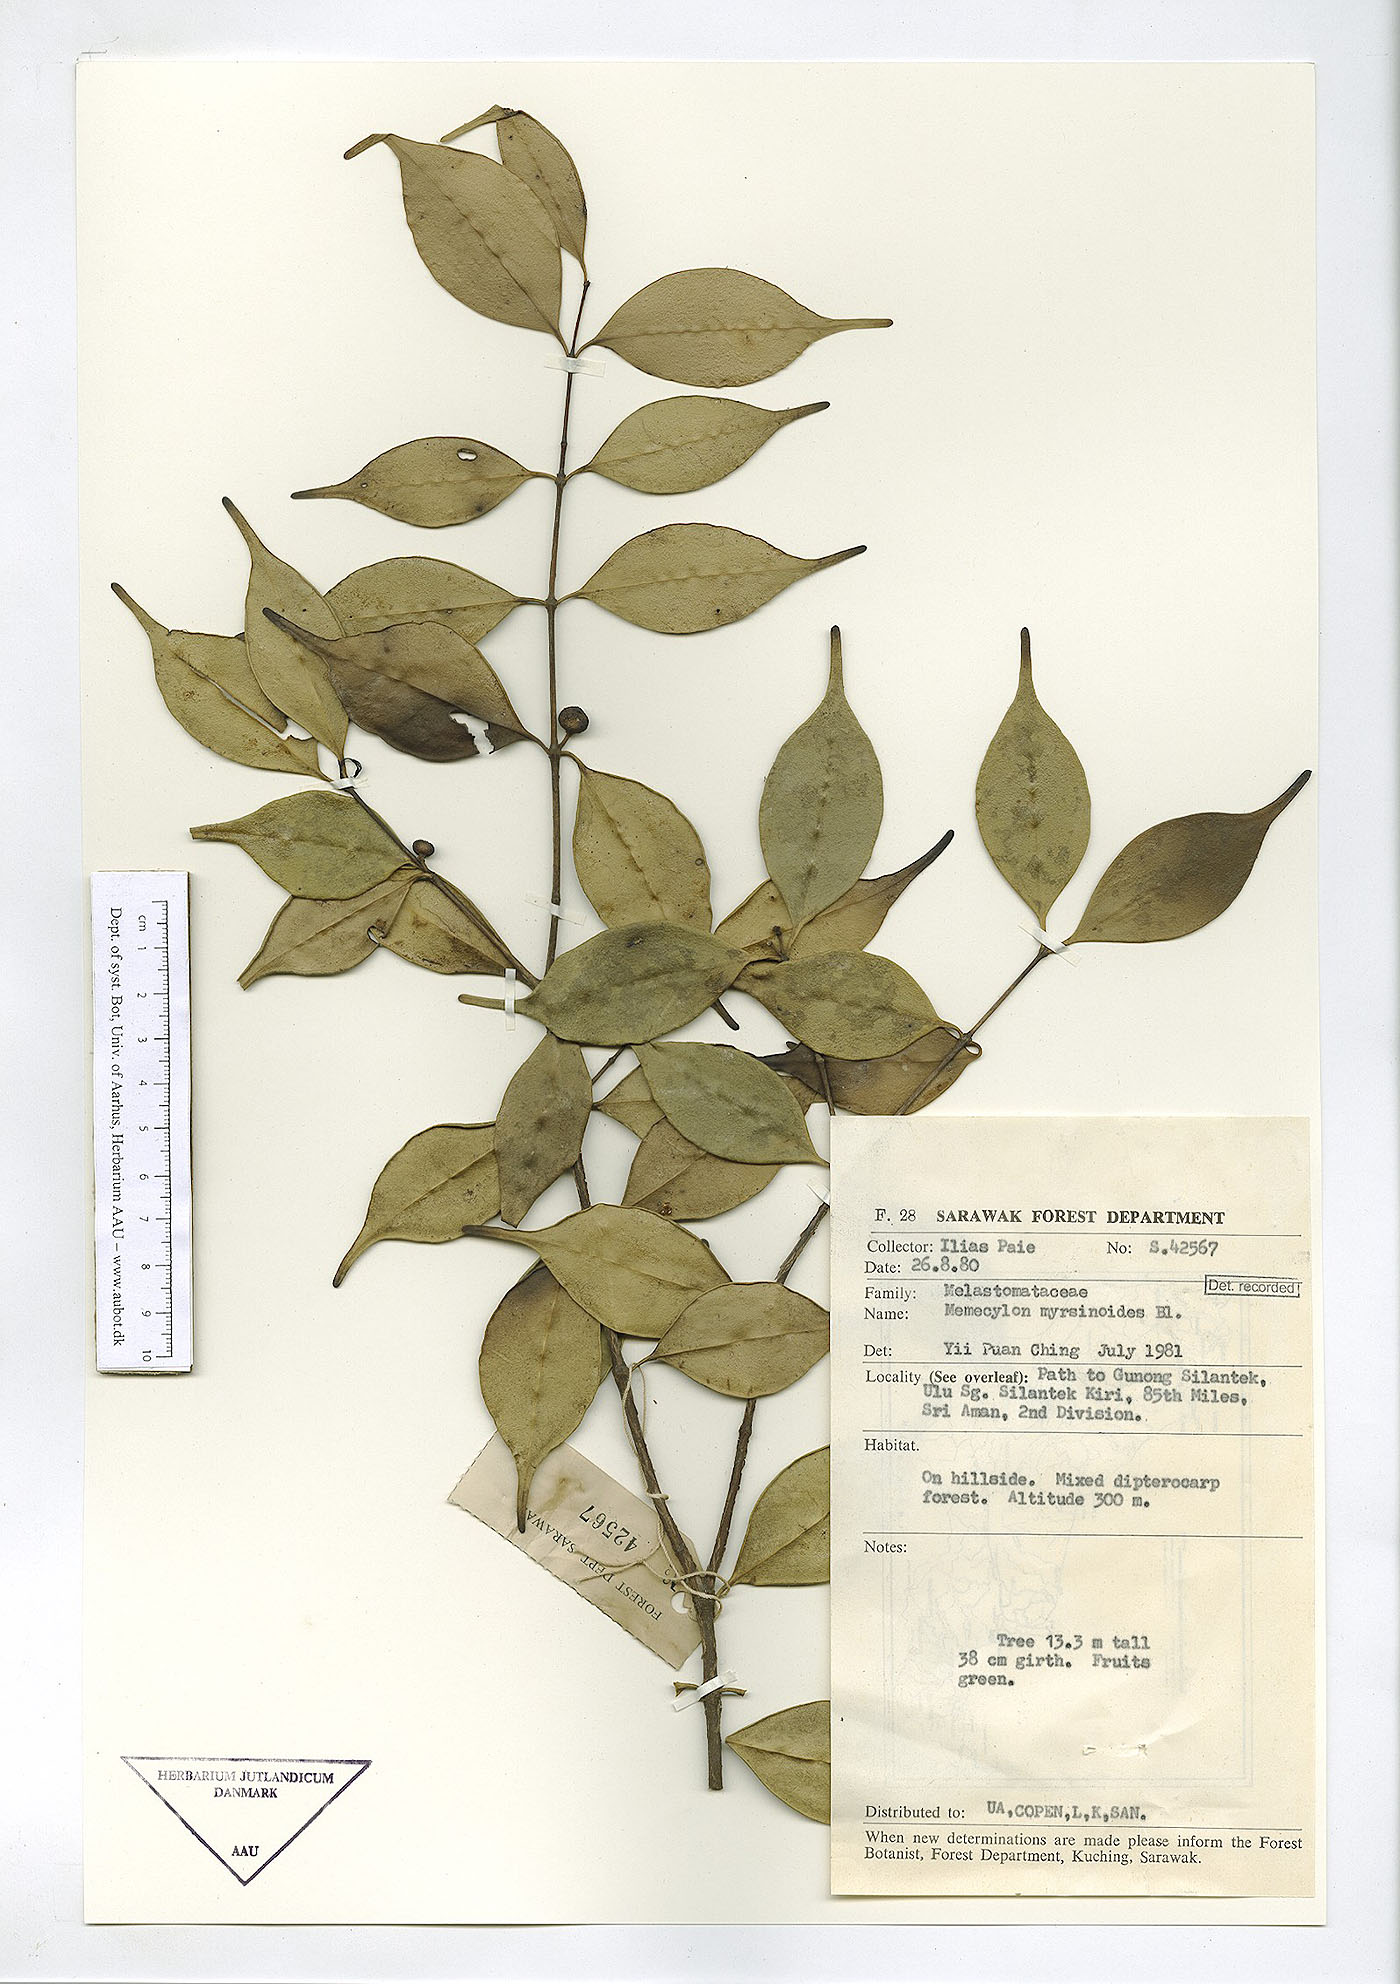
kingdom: Plantae
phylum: Tracheophyta
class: Magnoliopsida
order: Myrtales
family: Melastomataceae
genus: Memecylon
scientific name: Memecylon lilacinum
